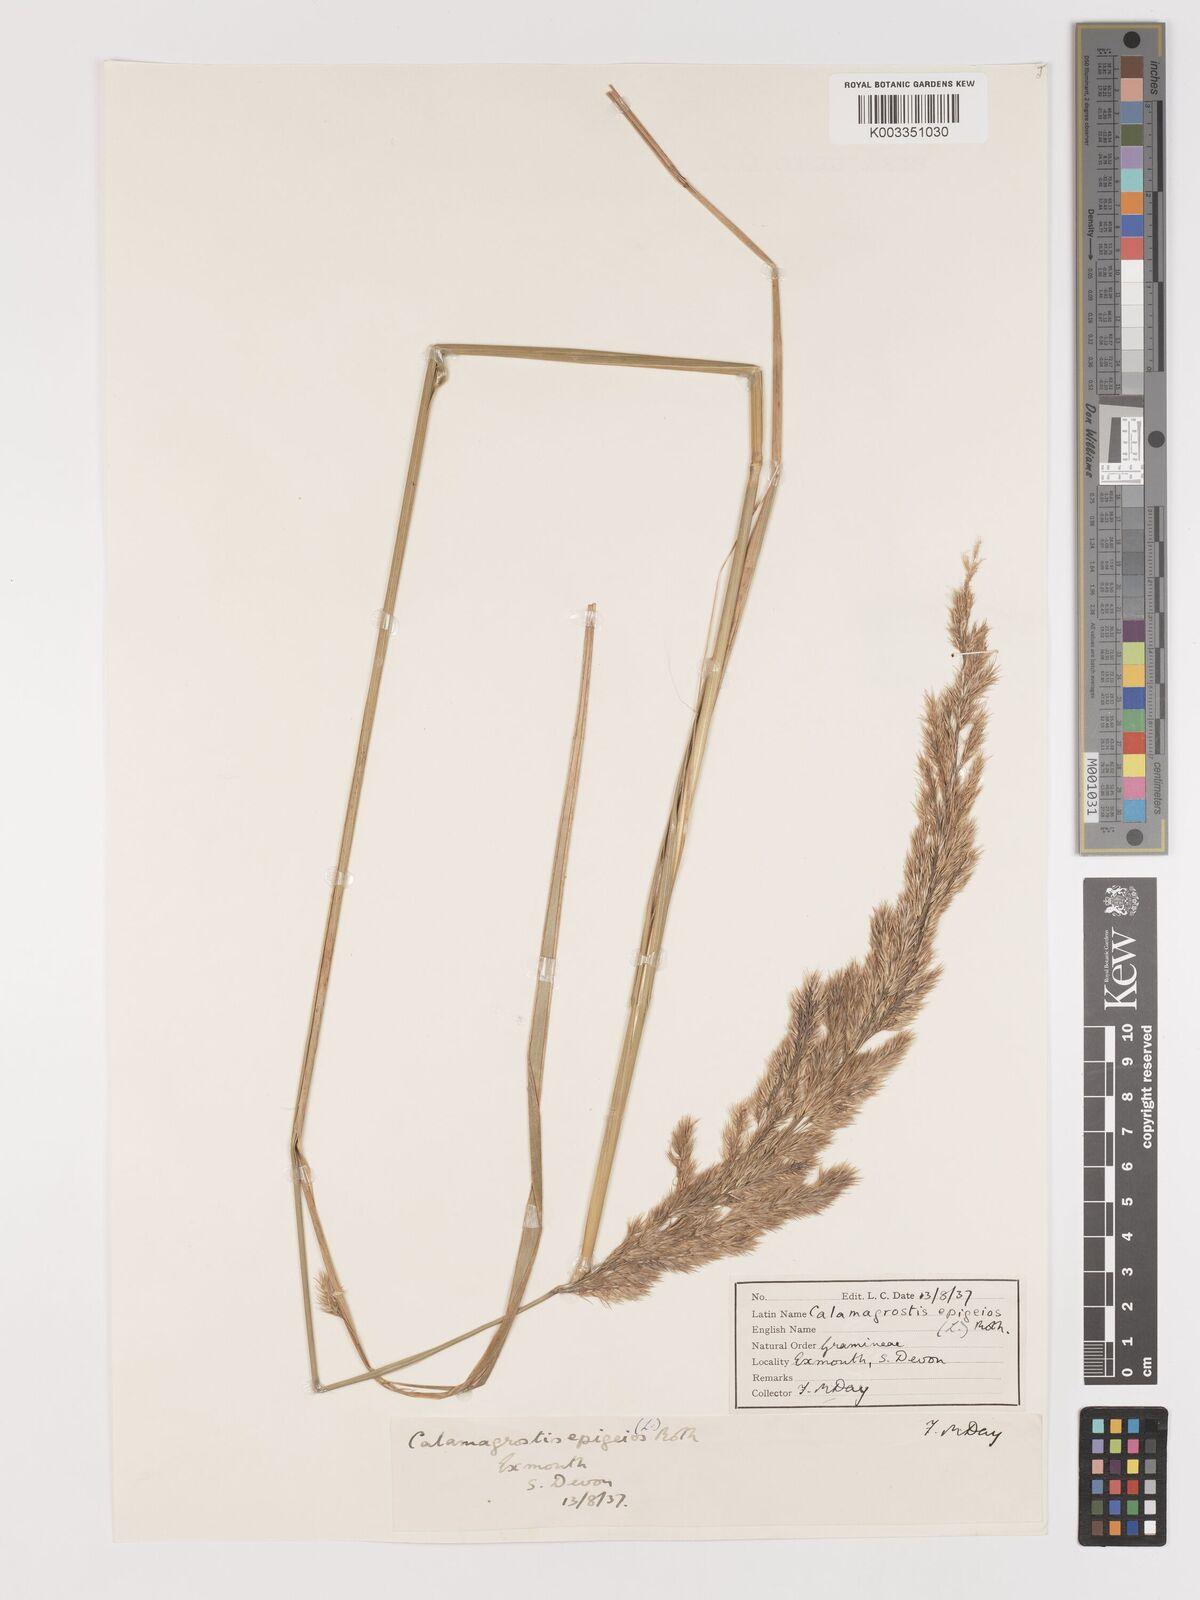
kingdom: Plantae
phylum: Tracheophyta
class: Liliopsida
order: Poales
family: Poaceae
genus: Calamagrostis
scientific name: Calamagrostis epigejos
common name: Wood small-reed
